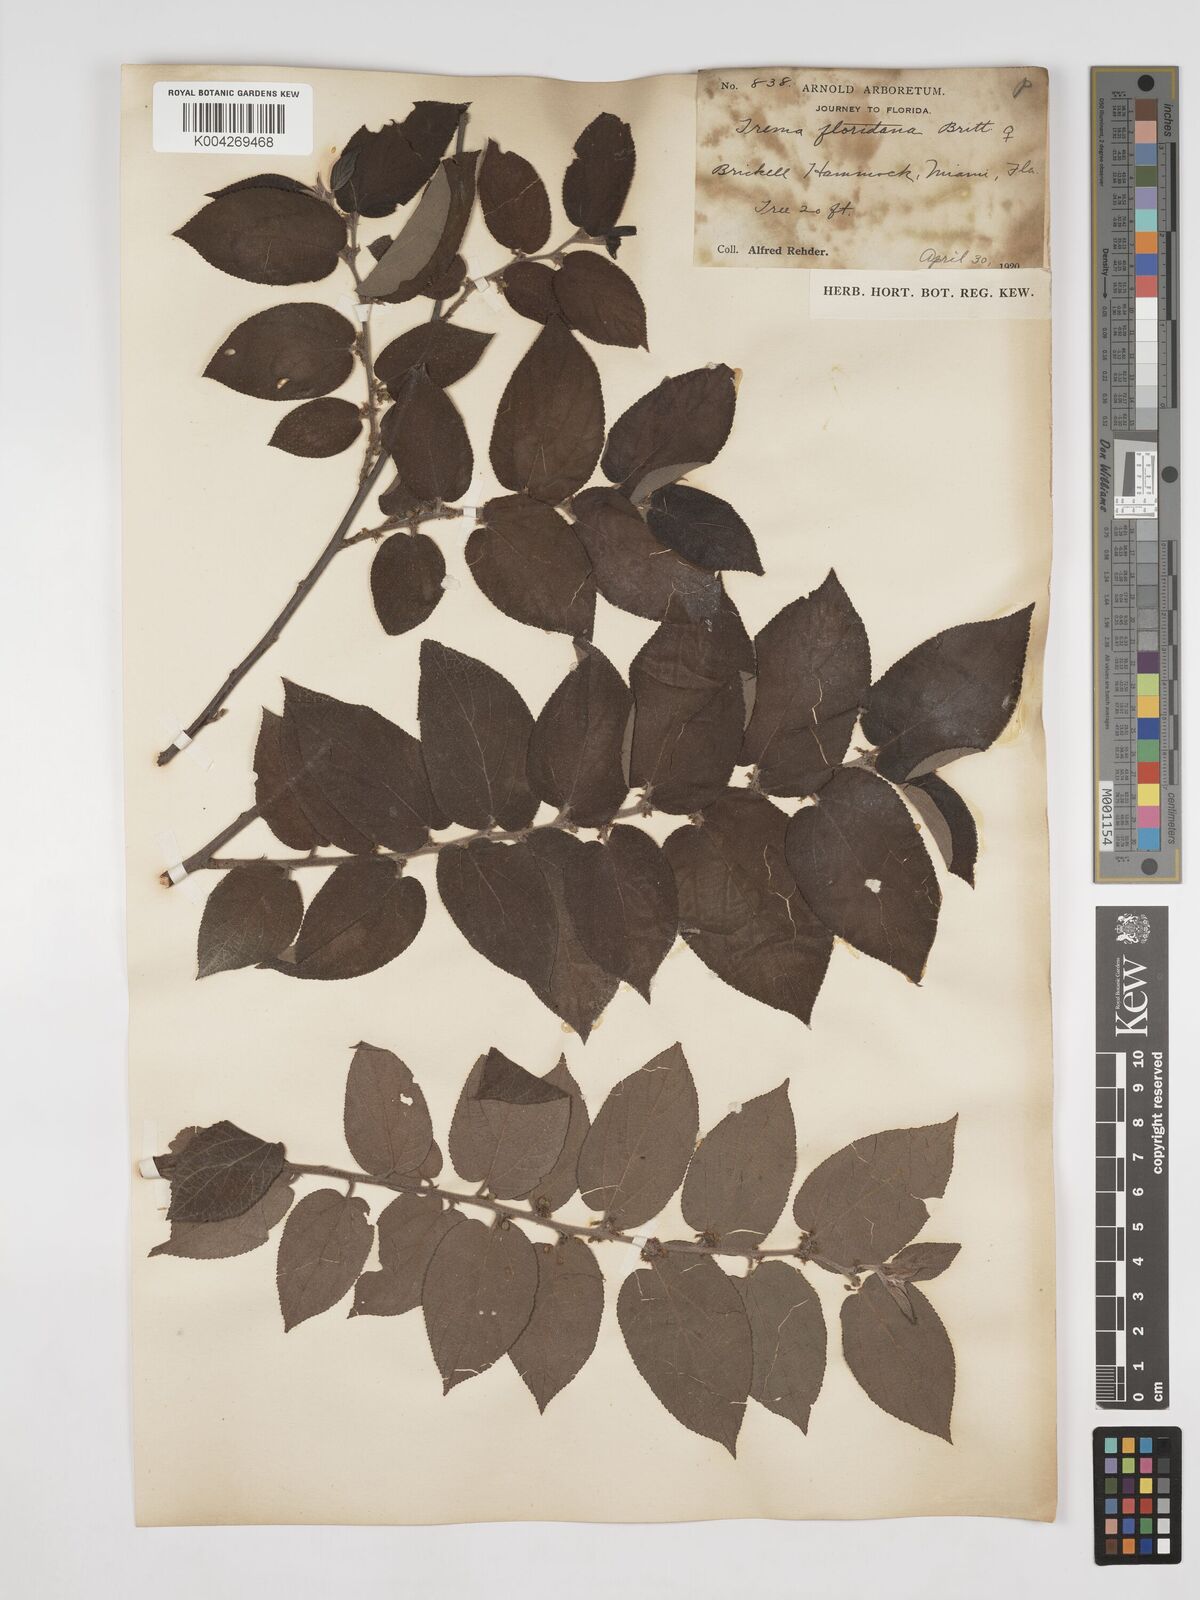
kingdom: Plantae
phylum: Tracheophyta
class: Magnoliopsida
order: Rosales
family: Cannabaceae
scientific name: Cannabaceae
